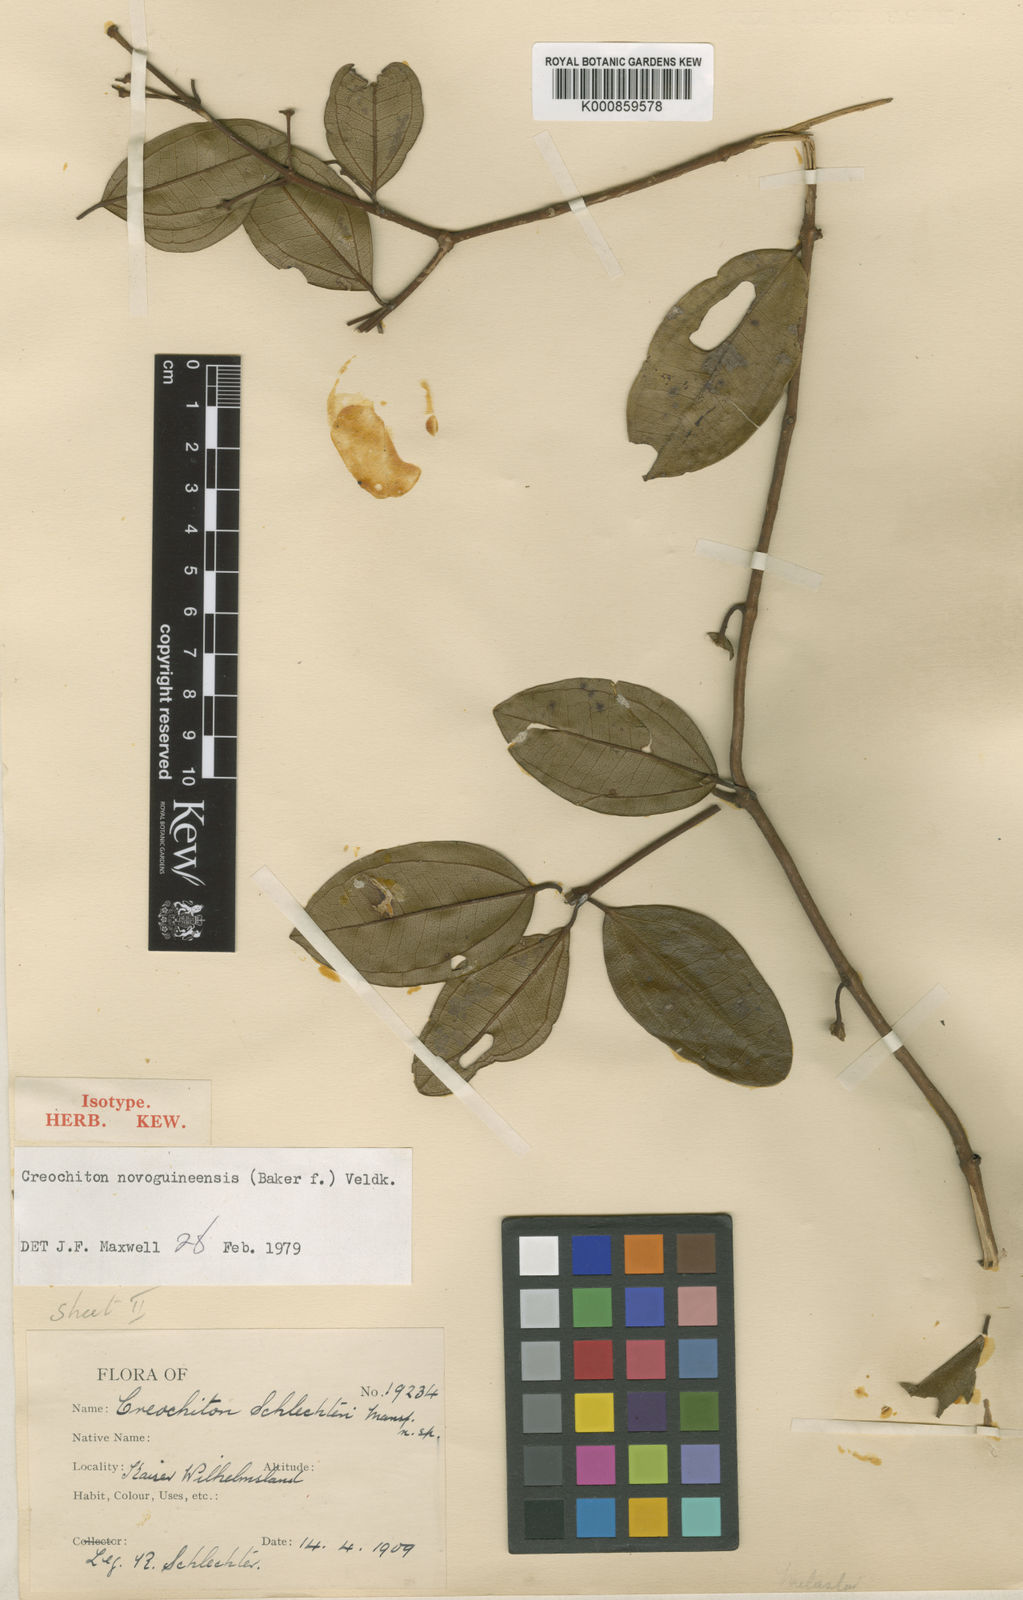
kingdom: Plantae
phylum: Tracheophyta
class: Magnoliopsida
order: Myrtales
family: Melastomataceae
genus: Creochiton
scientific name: Creochiton novoguineensis
